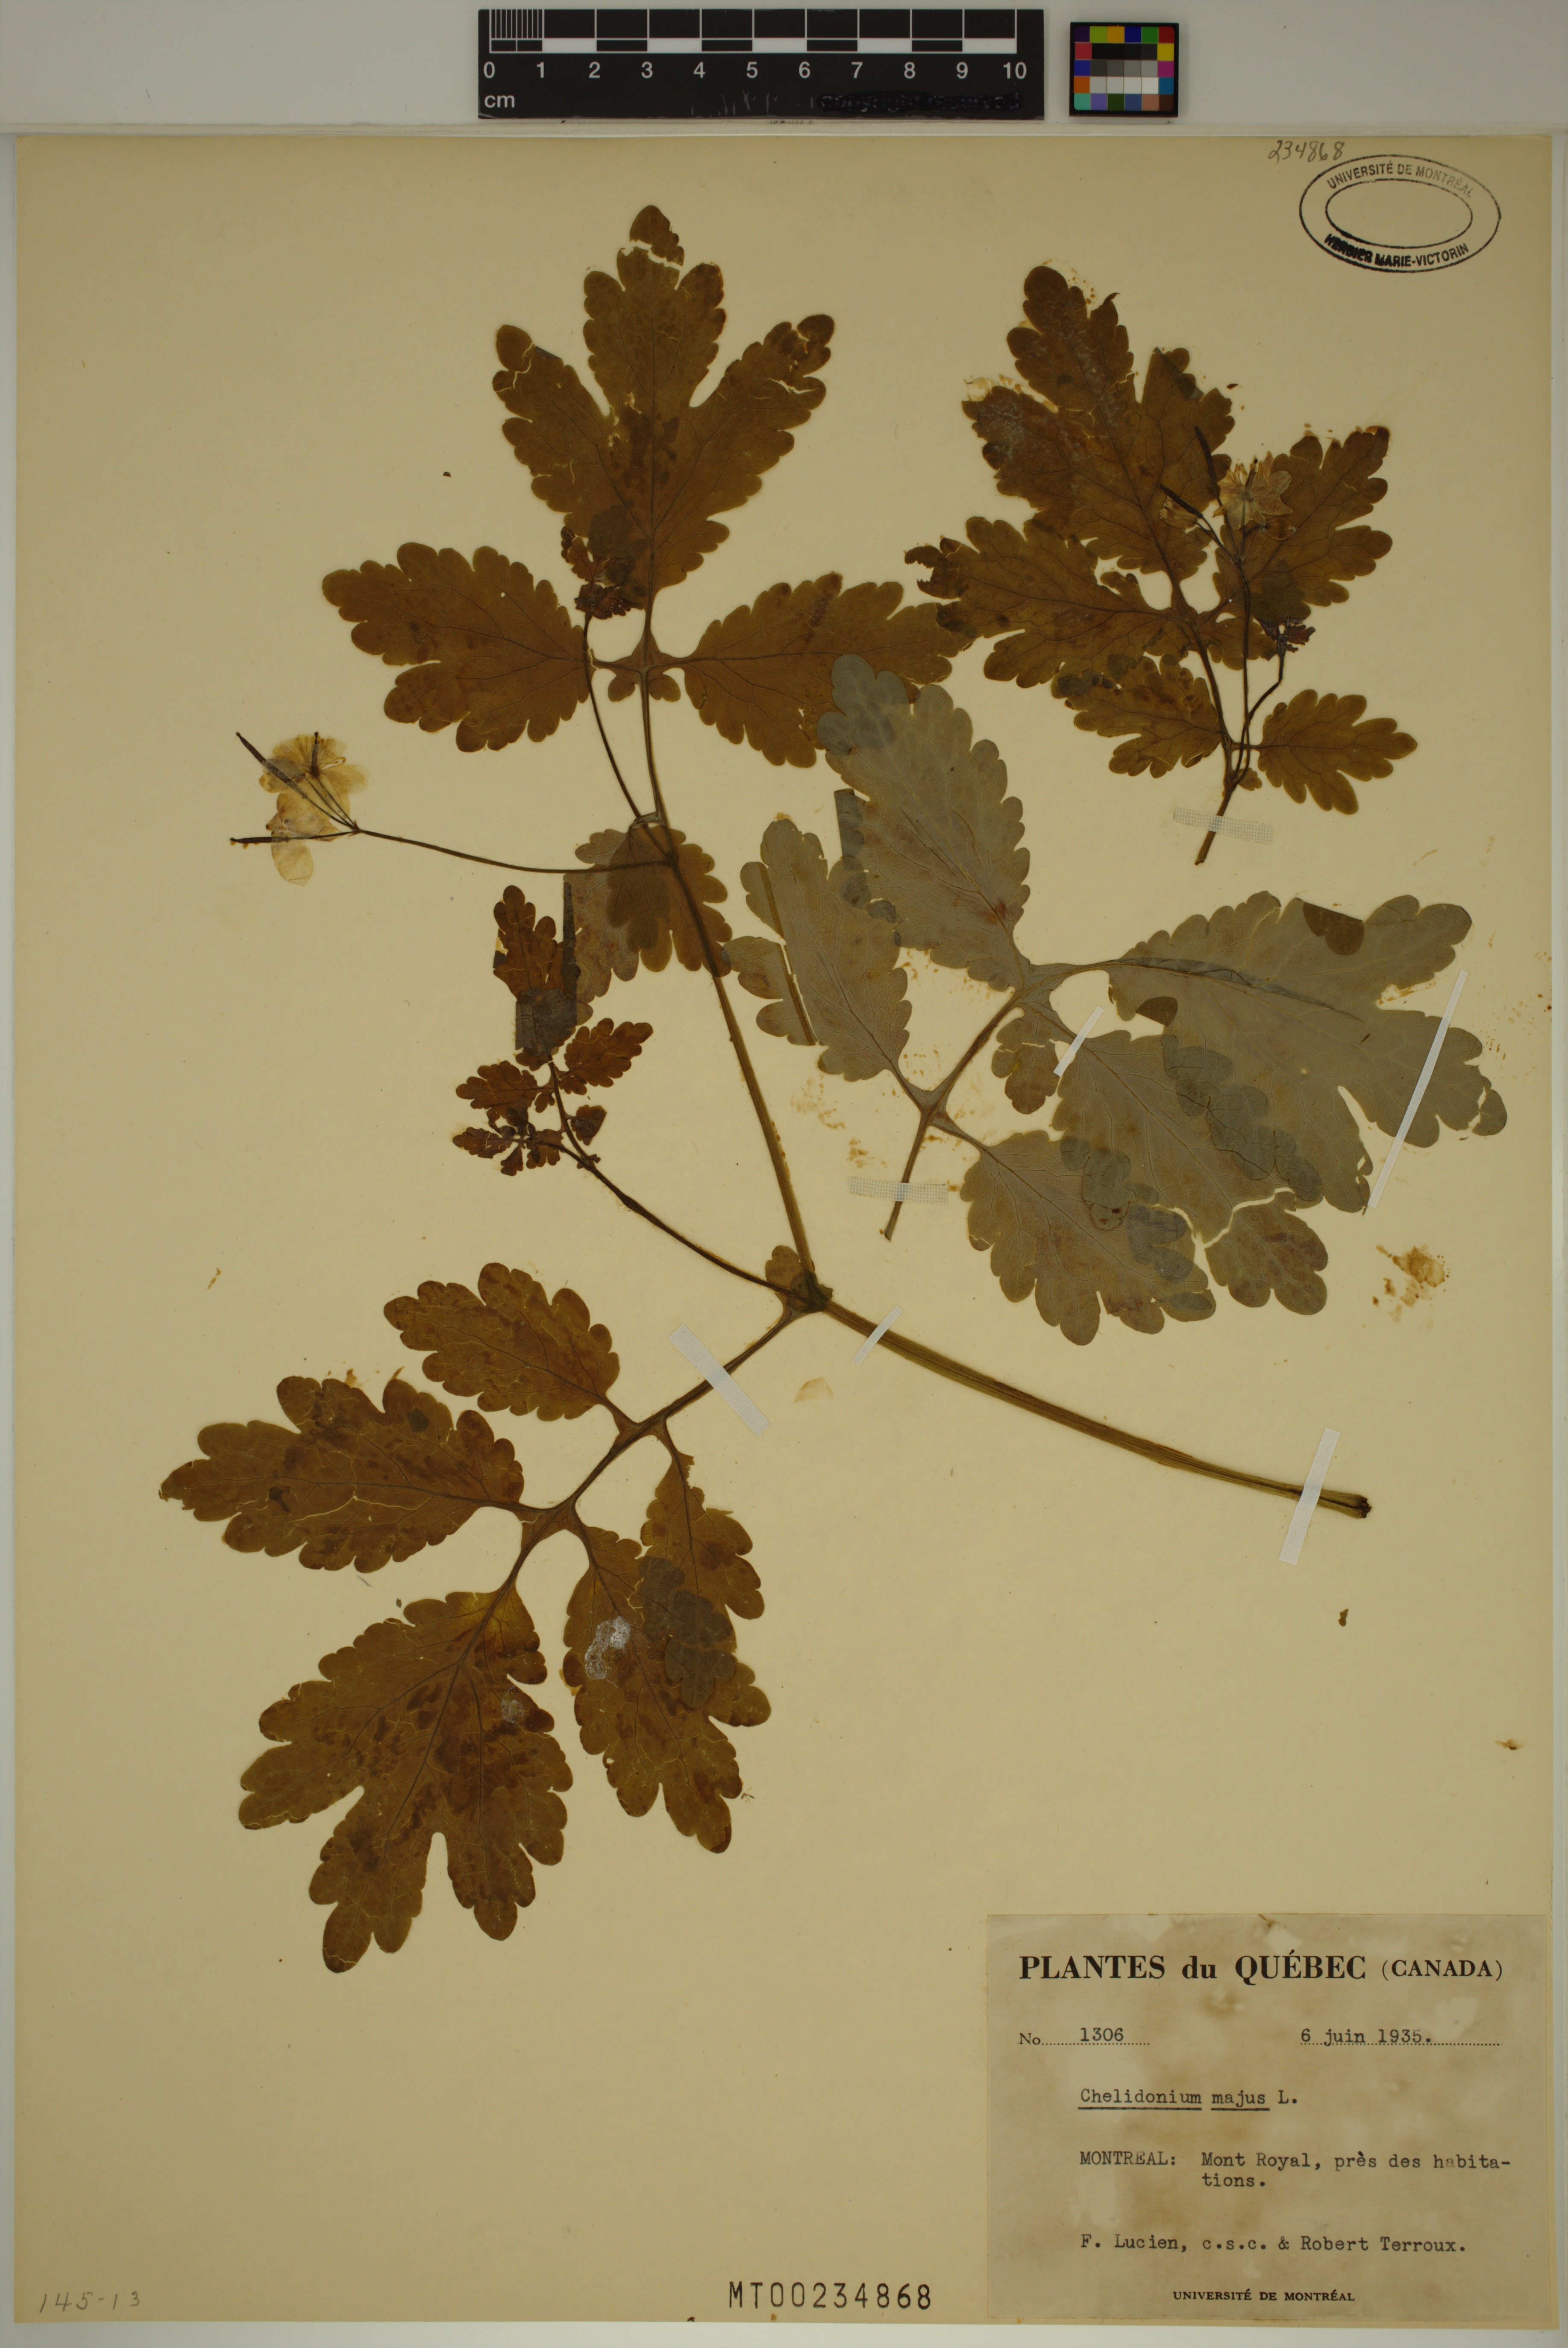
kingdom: Plantae
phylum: Tracheophyta
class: Magnoliopsida
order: Ranunculales
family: Papaveraceae
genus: Chelidonium
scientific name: Chelidonium majus
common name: Greater celandine
